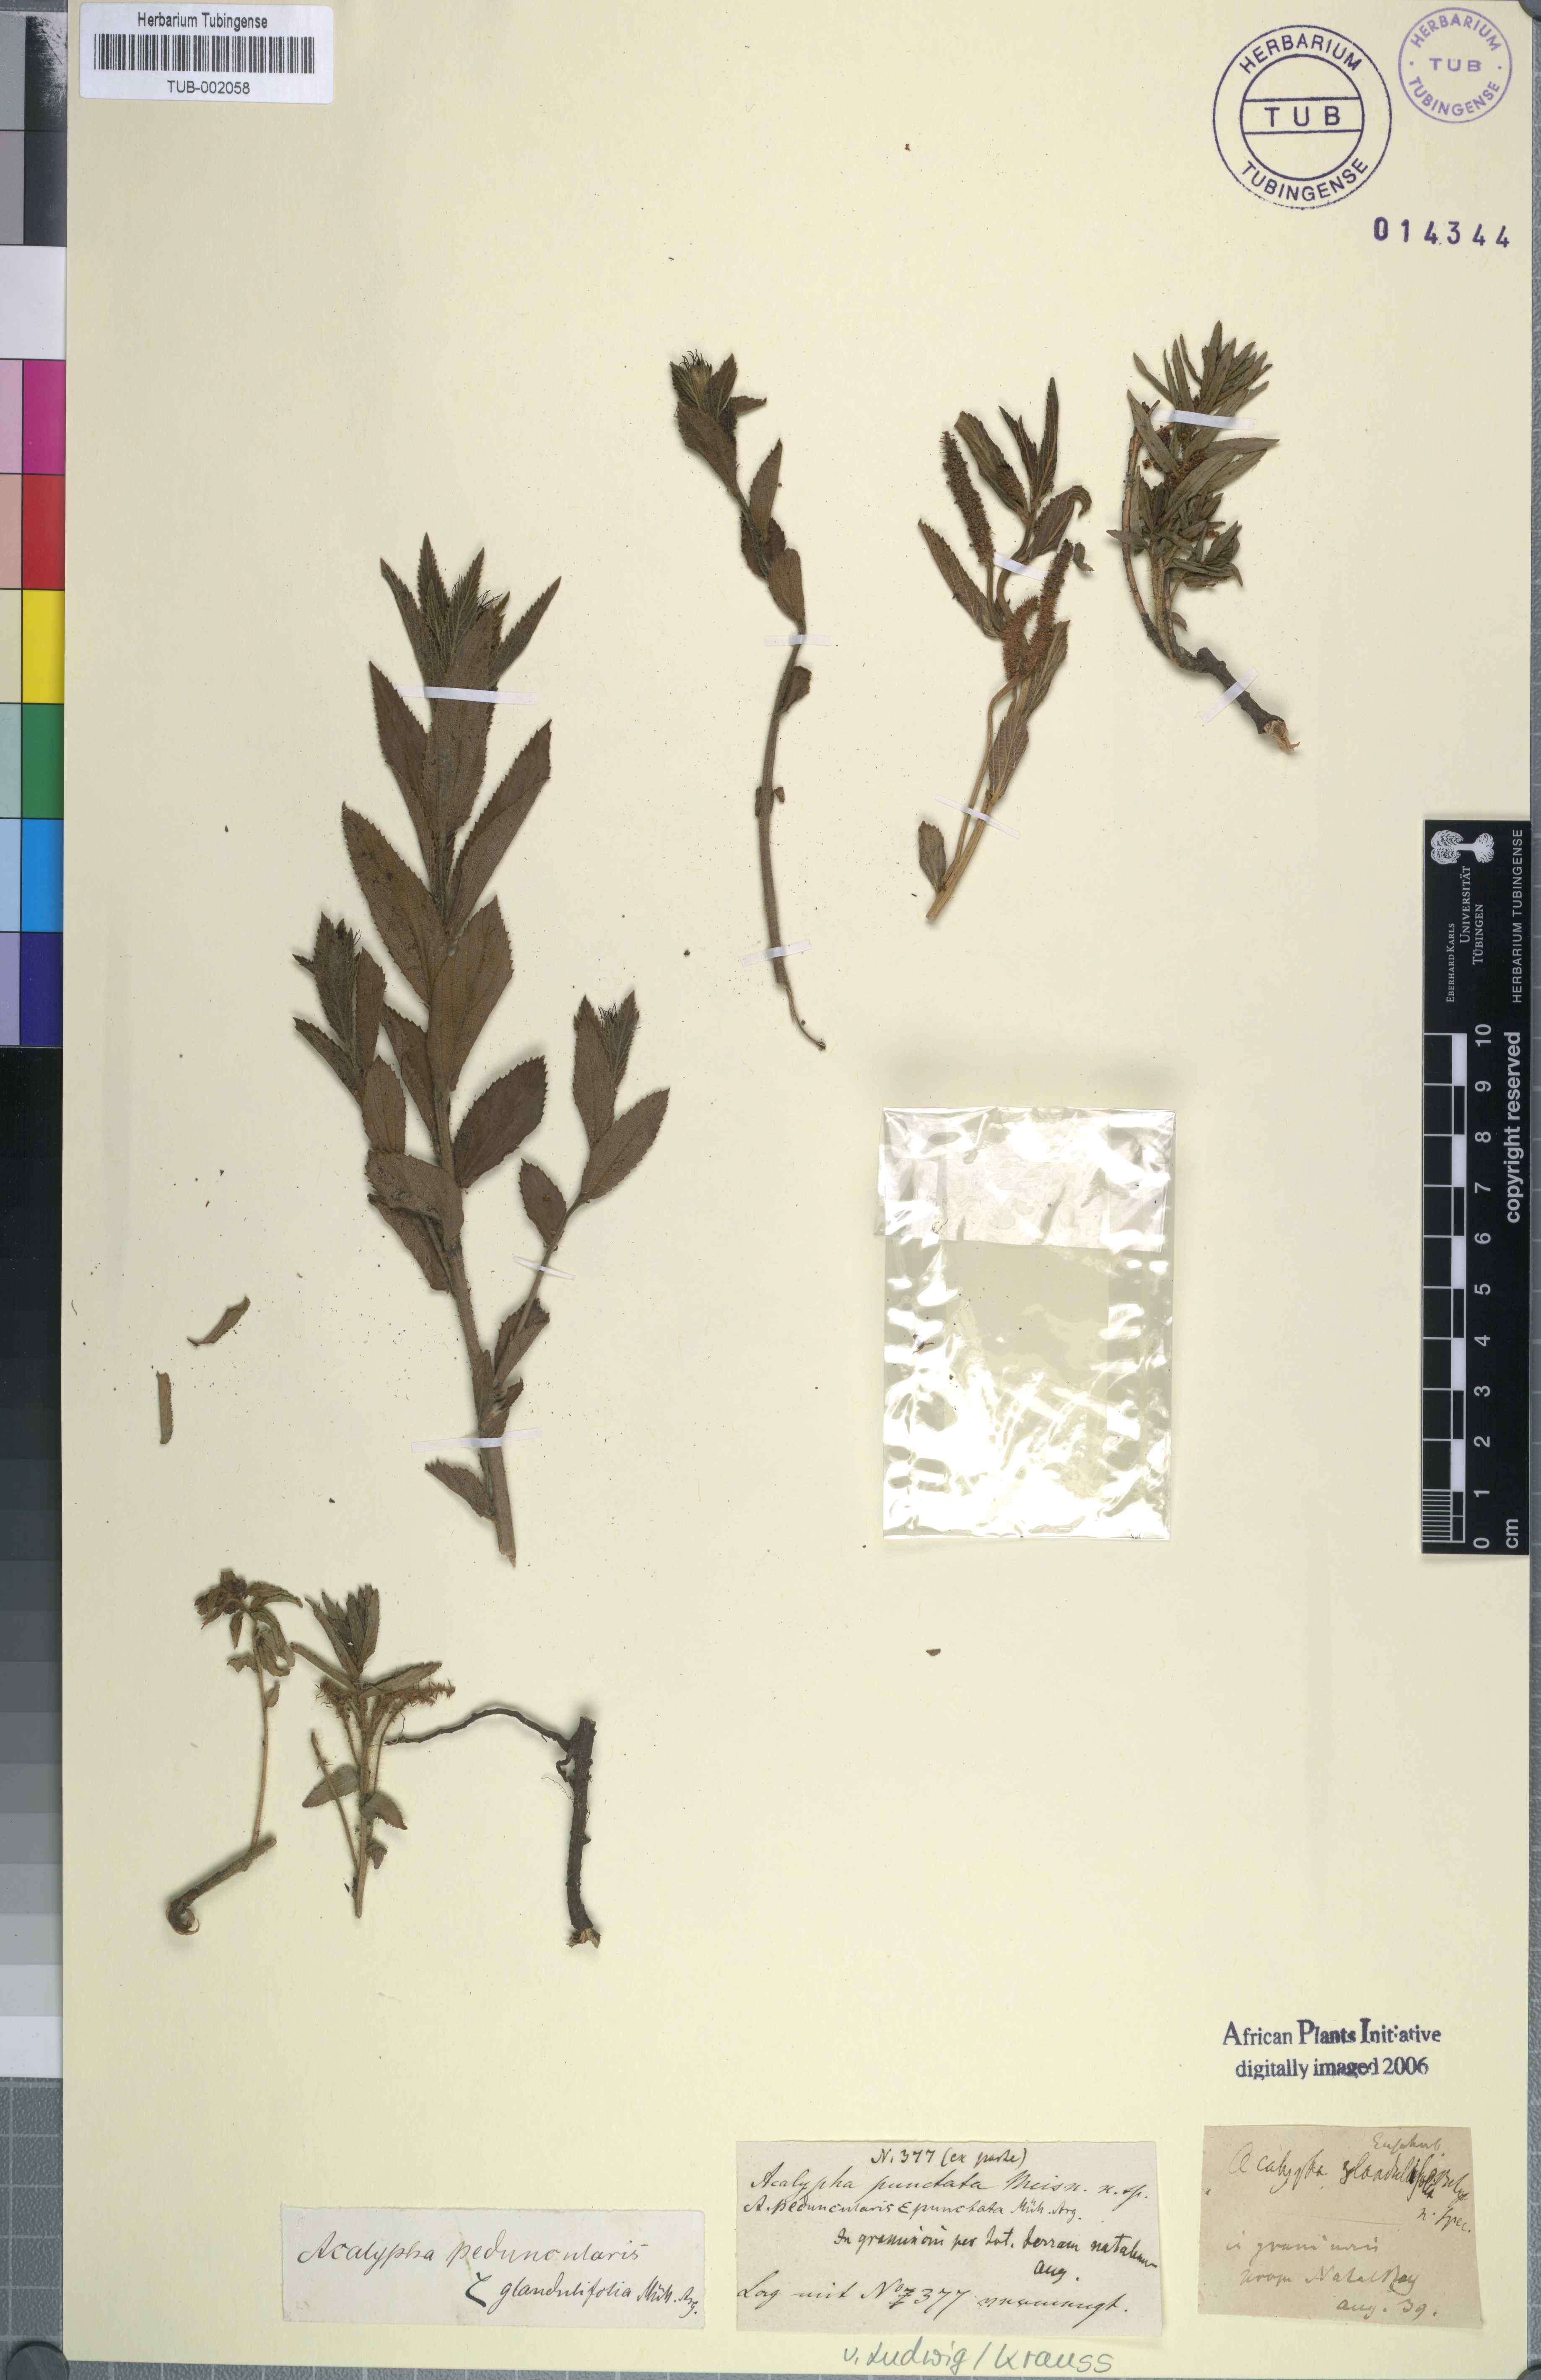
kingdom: Plantae
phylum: Tracheophyta
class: Magnoliopsida
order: Malpighiales
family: Euphorbiaceae
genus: Acalypha
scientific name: Acalypha peduncularis
